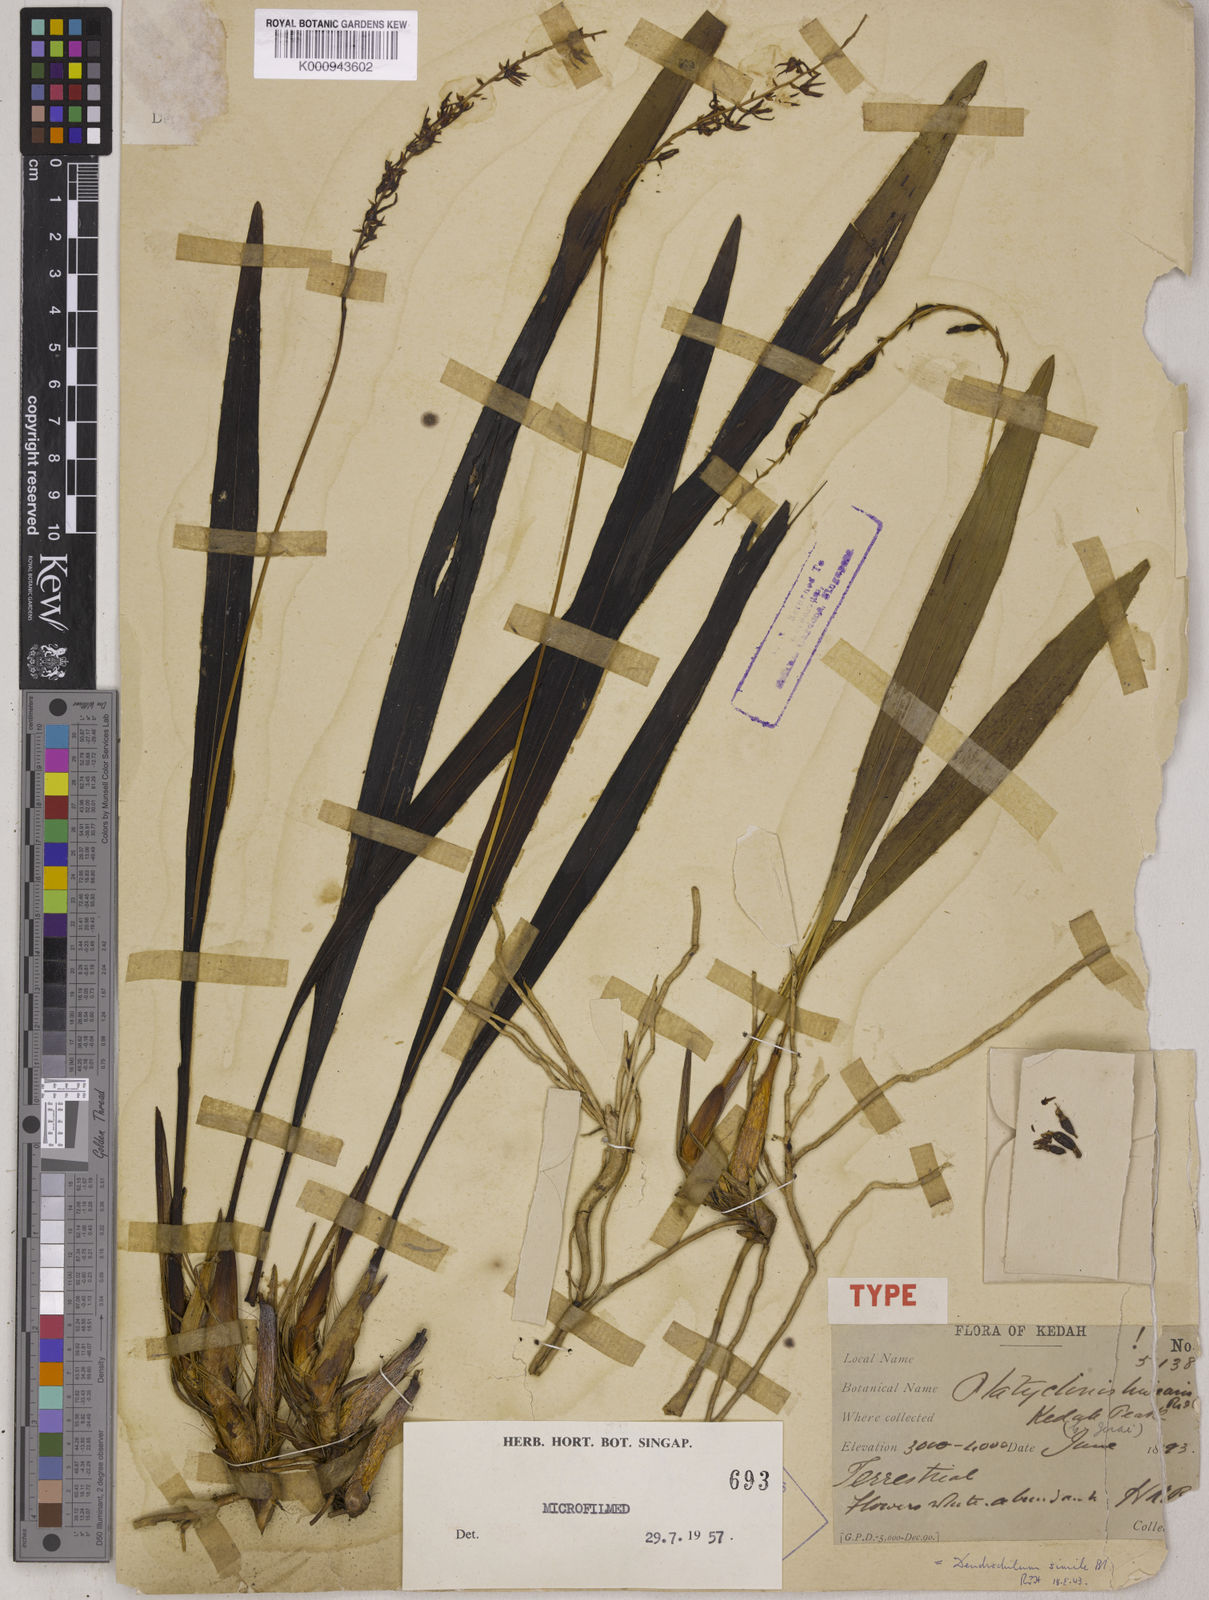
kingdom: Plantae
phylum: Tracheophyta
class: Liliopsida
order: Asparagales
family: Orchidaceae
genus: Coelogyne
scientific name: Coelogyne similis
